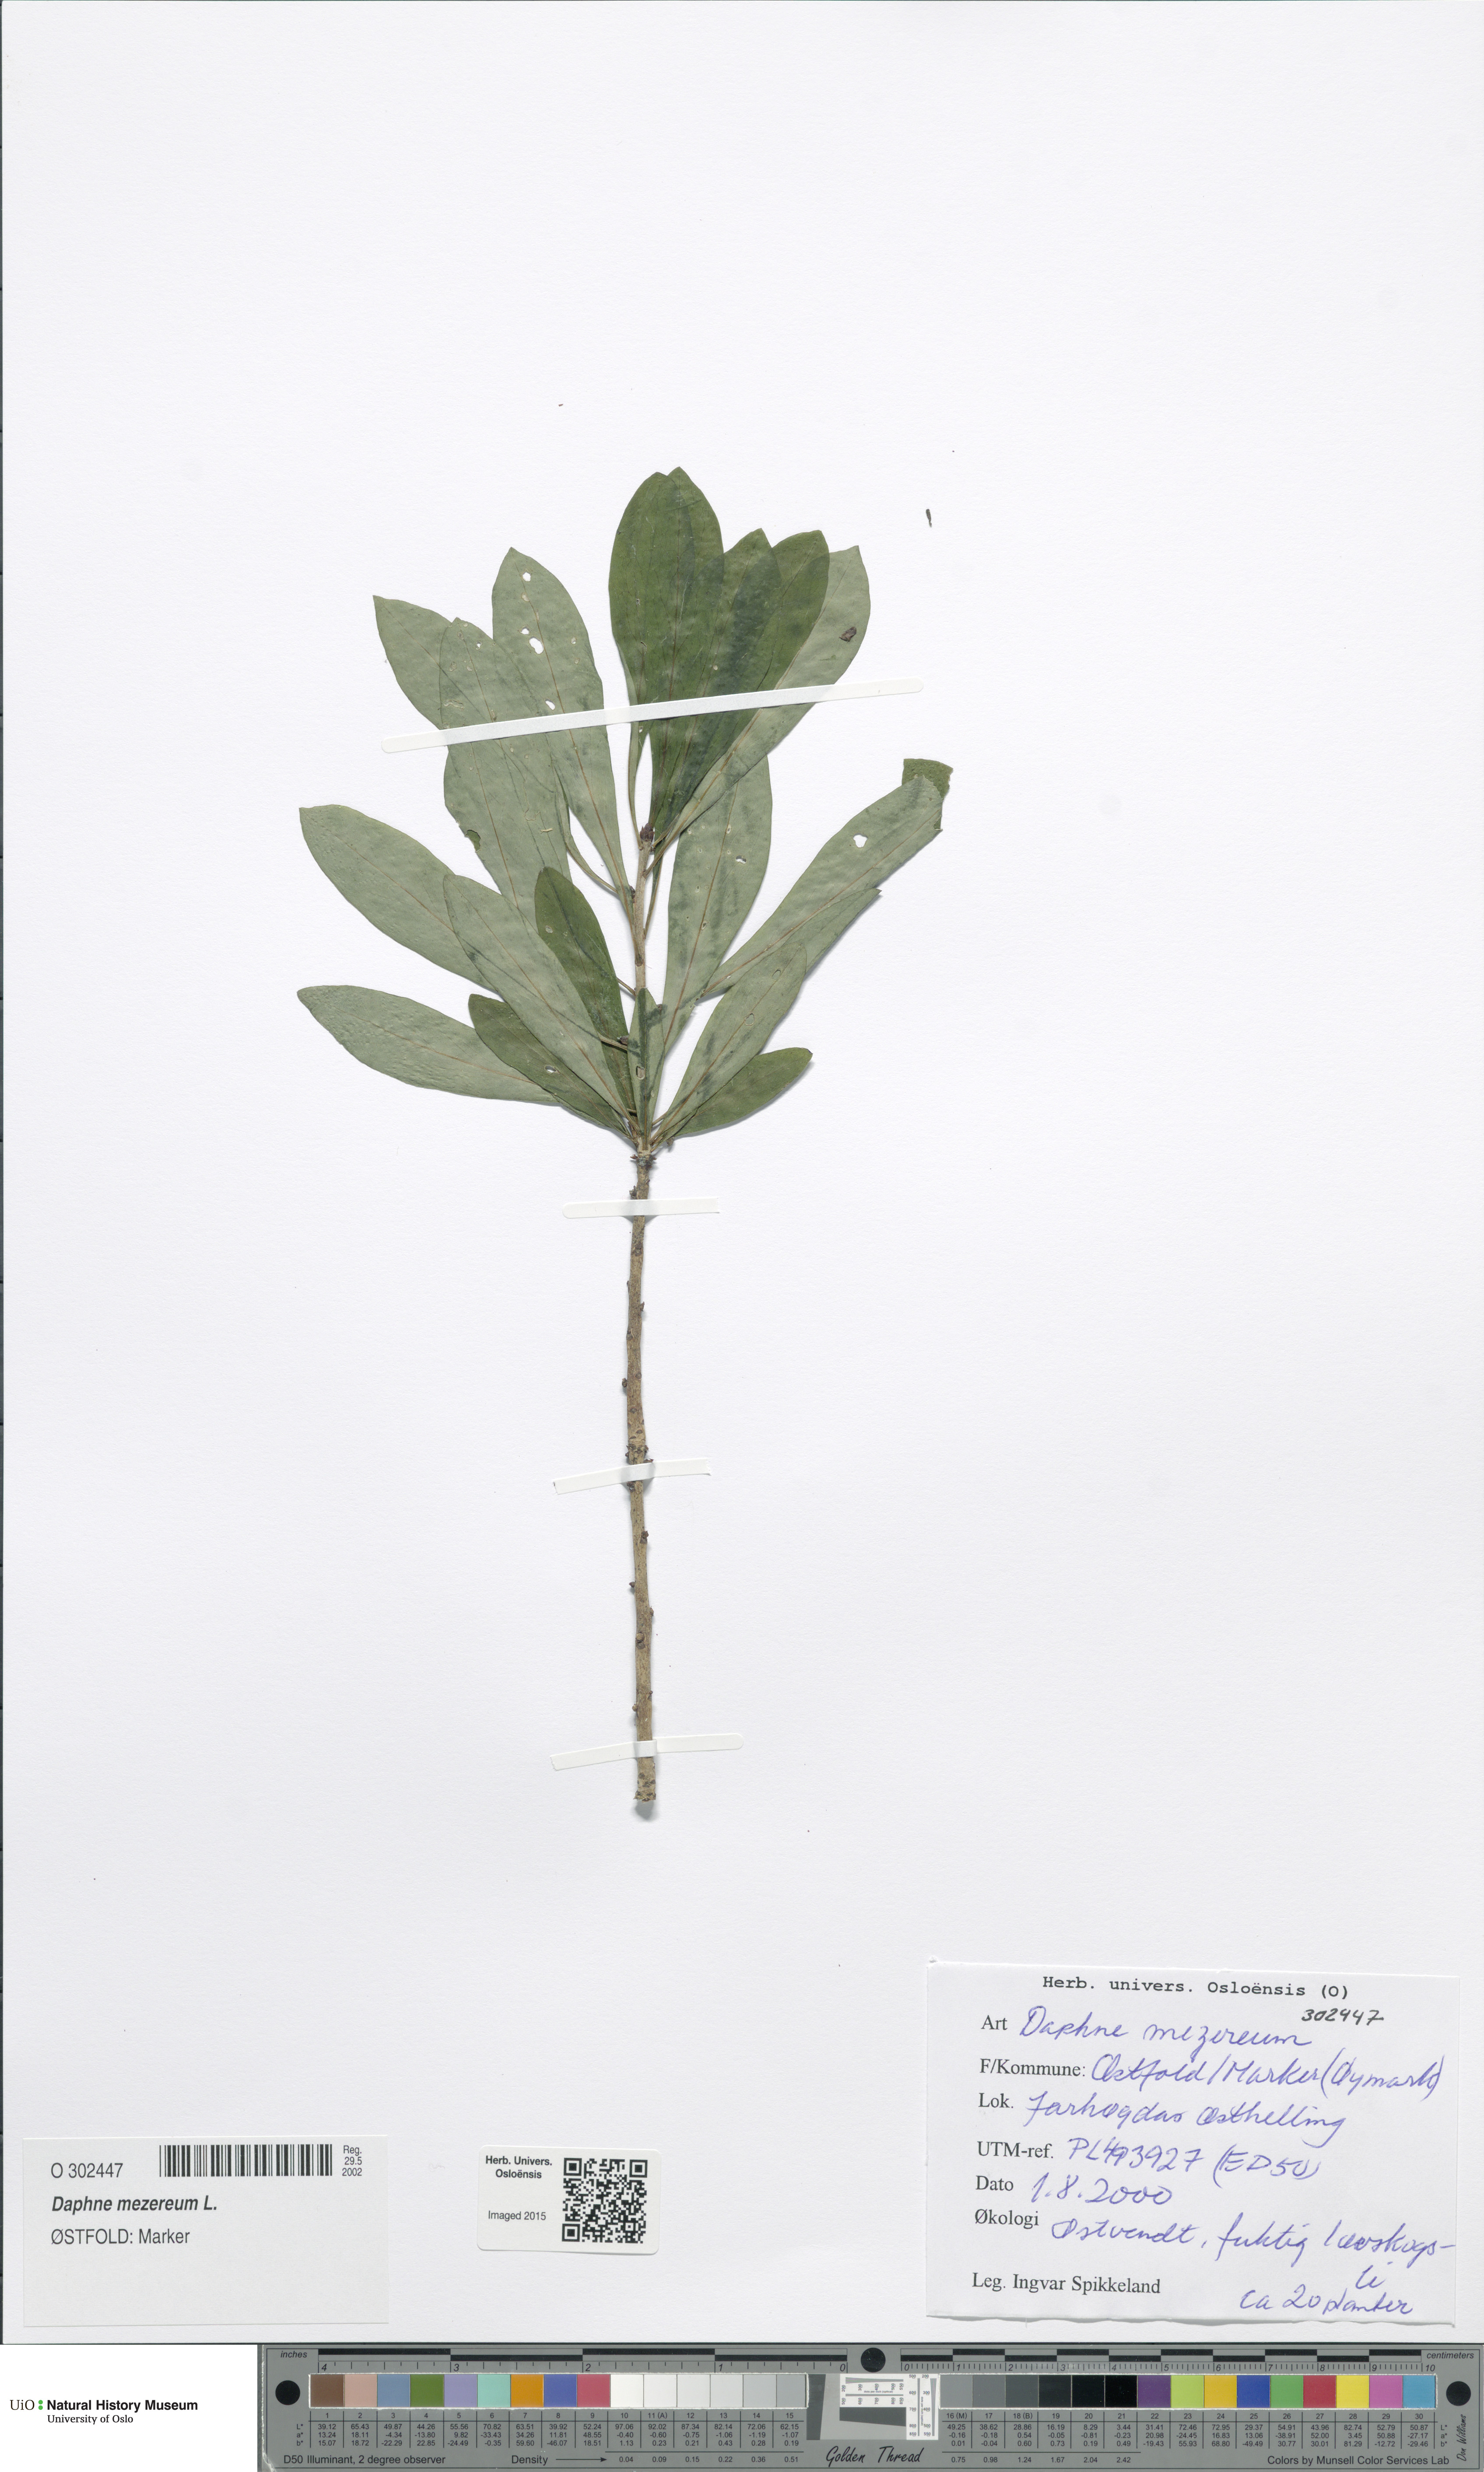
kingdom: Plantae
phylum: Tracheophyta
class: Magnoliopsida
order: Malvales
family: Thymelaeaceae
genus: Daphne
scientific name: Daphne mezereum
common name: Mezereon
